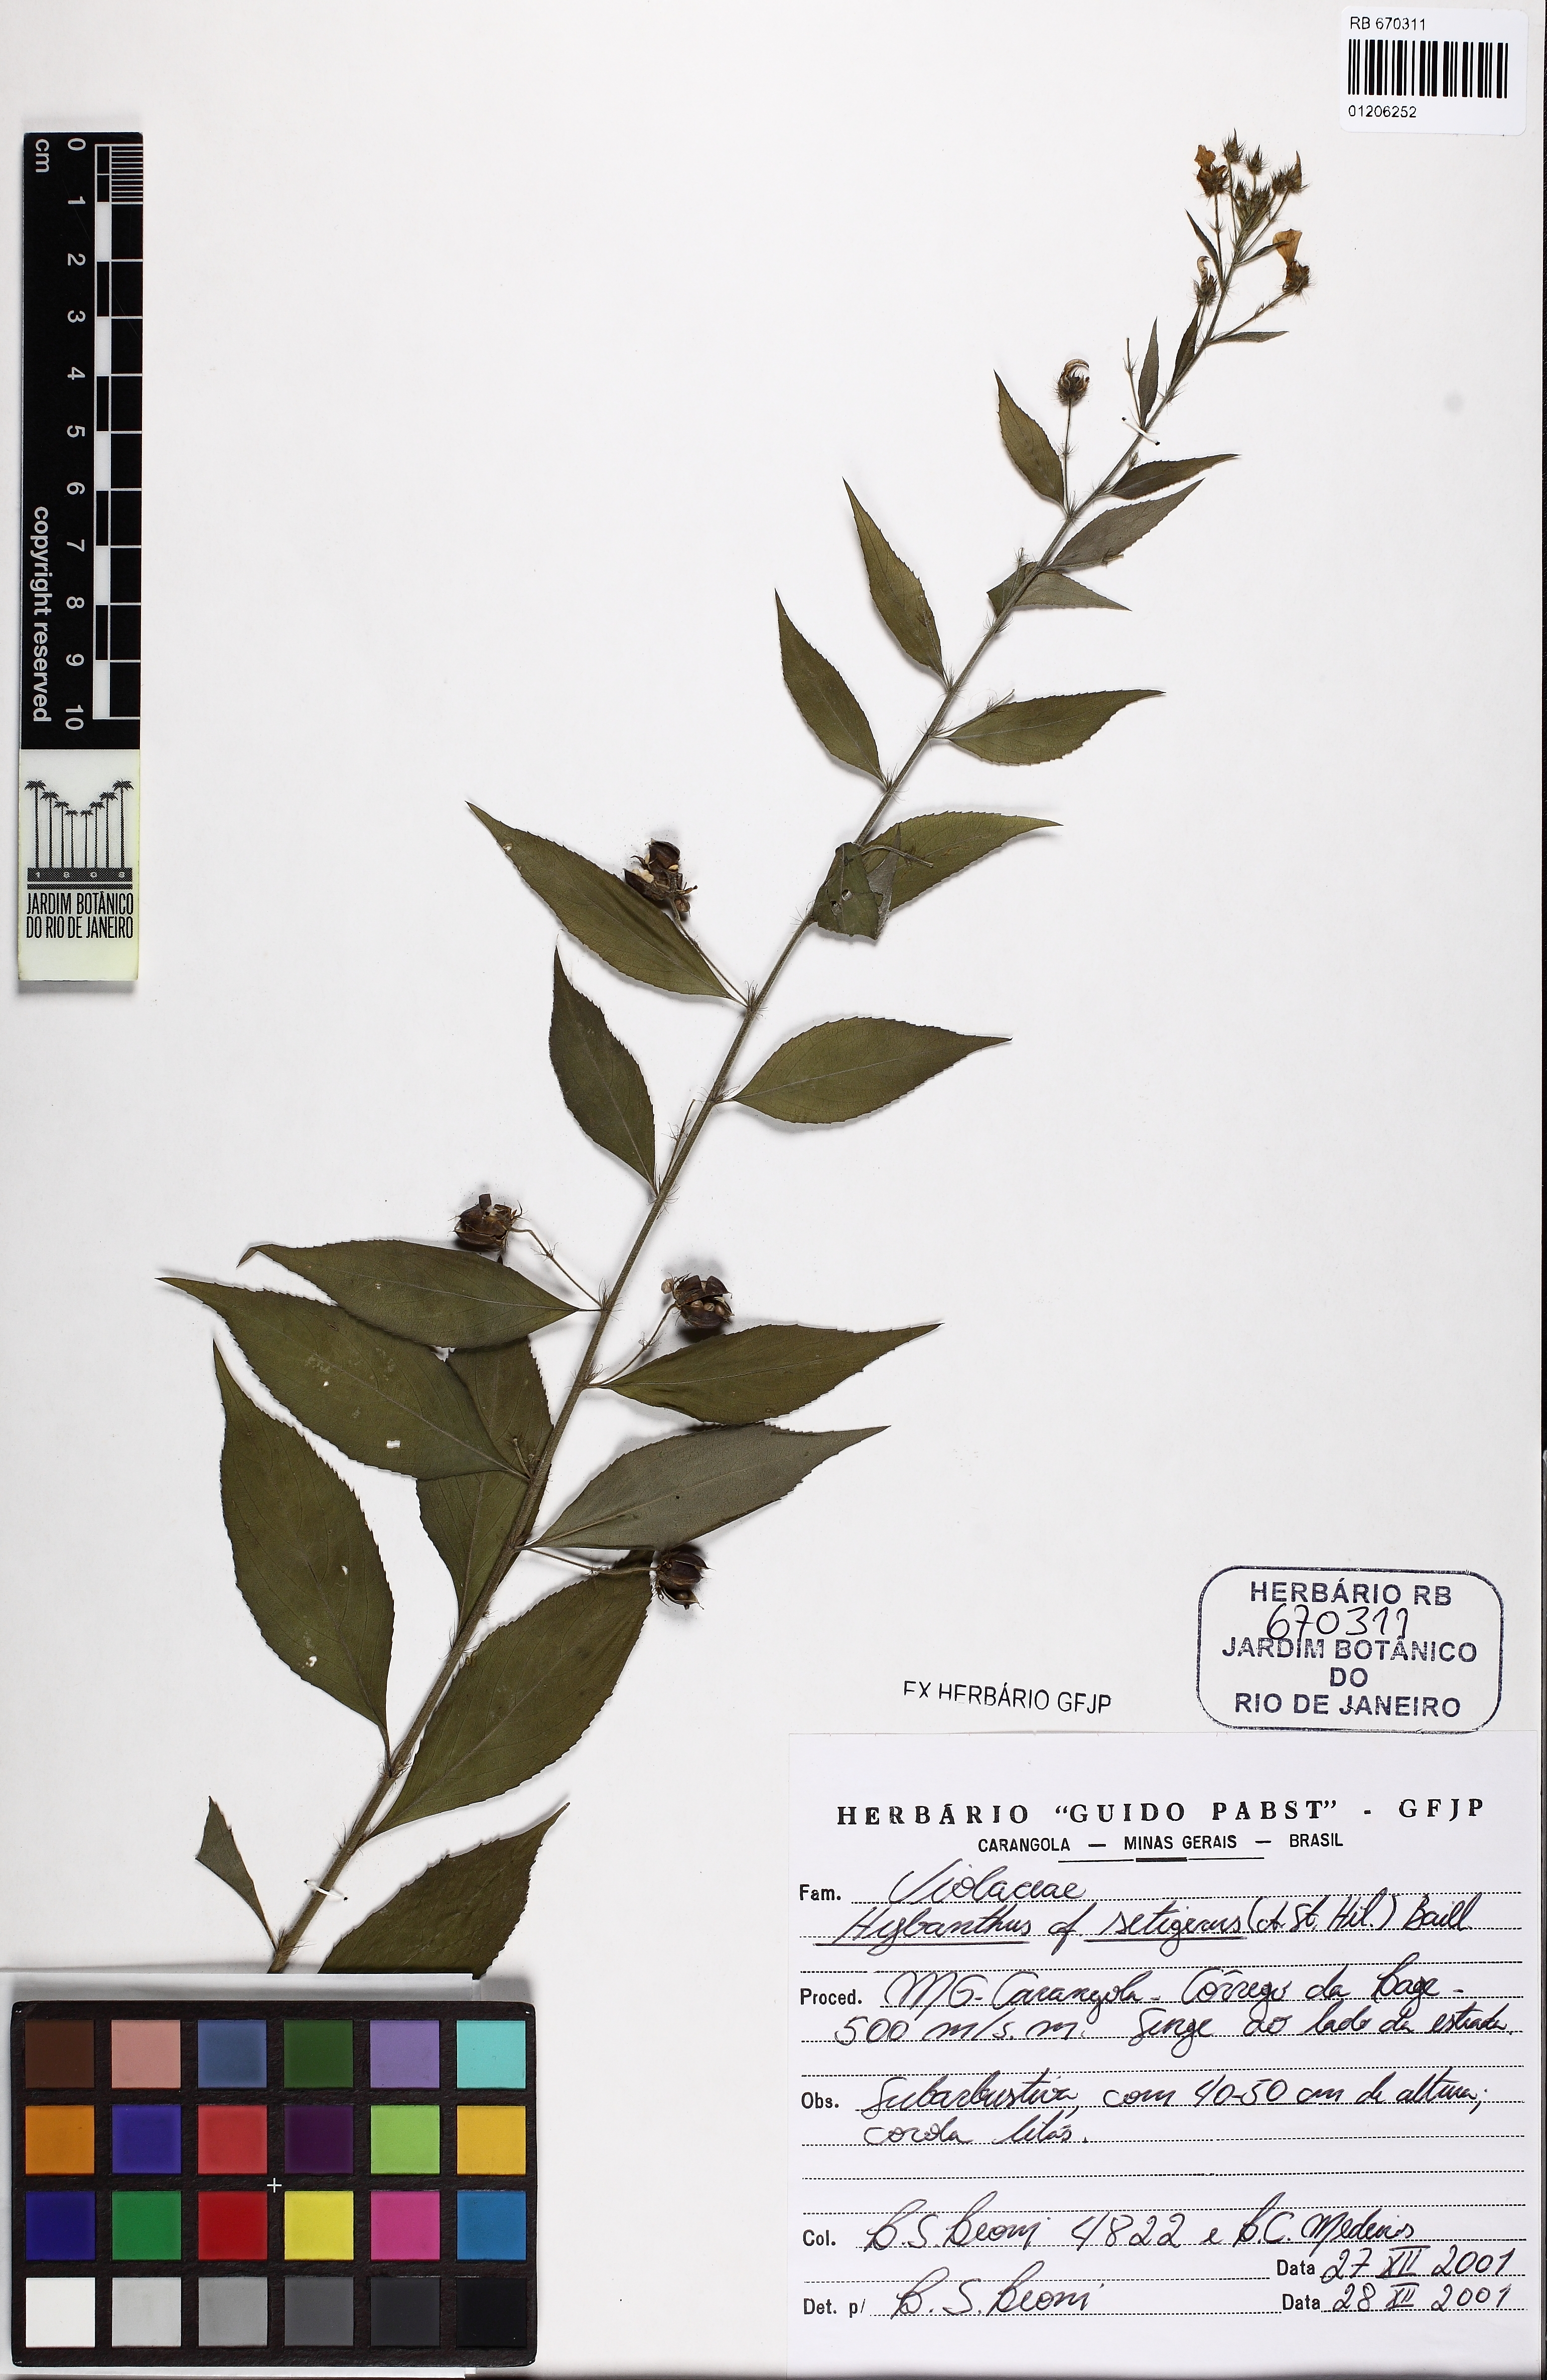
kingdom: Plantae
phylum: Tracheophyta
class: Magnoliopsida
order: Malpighiales
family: Violaceae
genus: Pombalia
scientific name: Pombalia setigera
